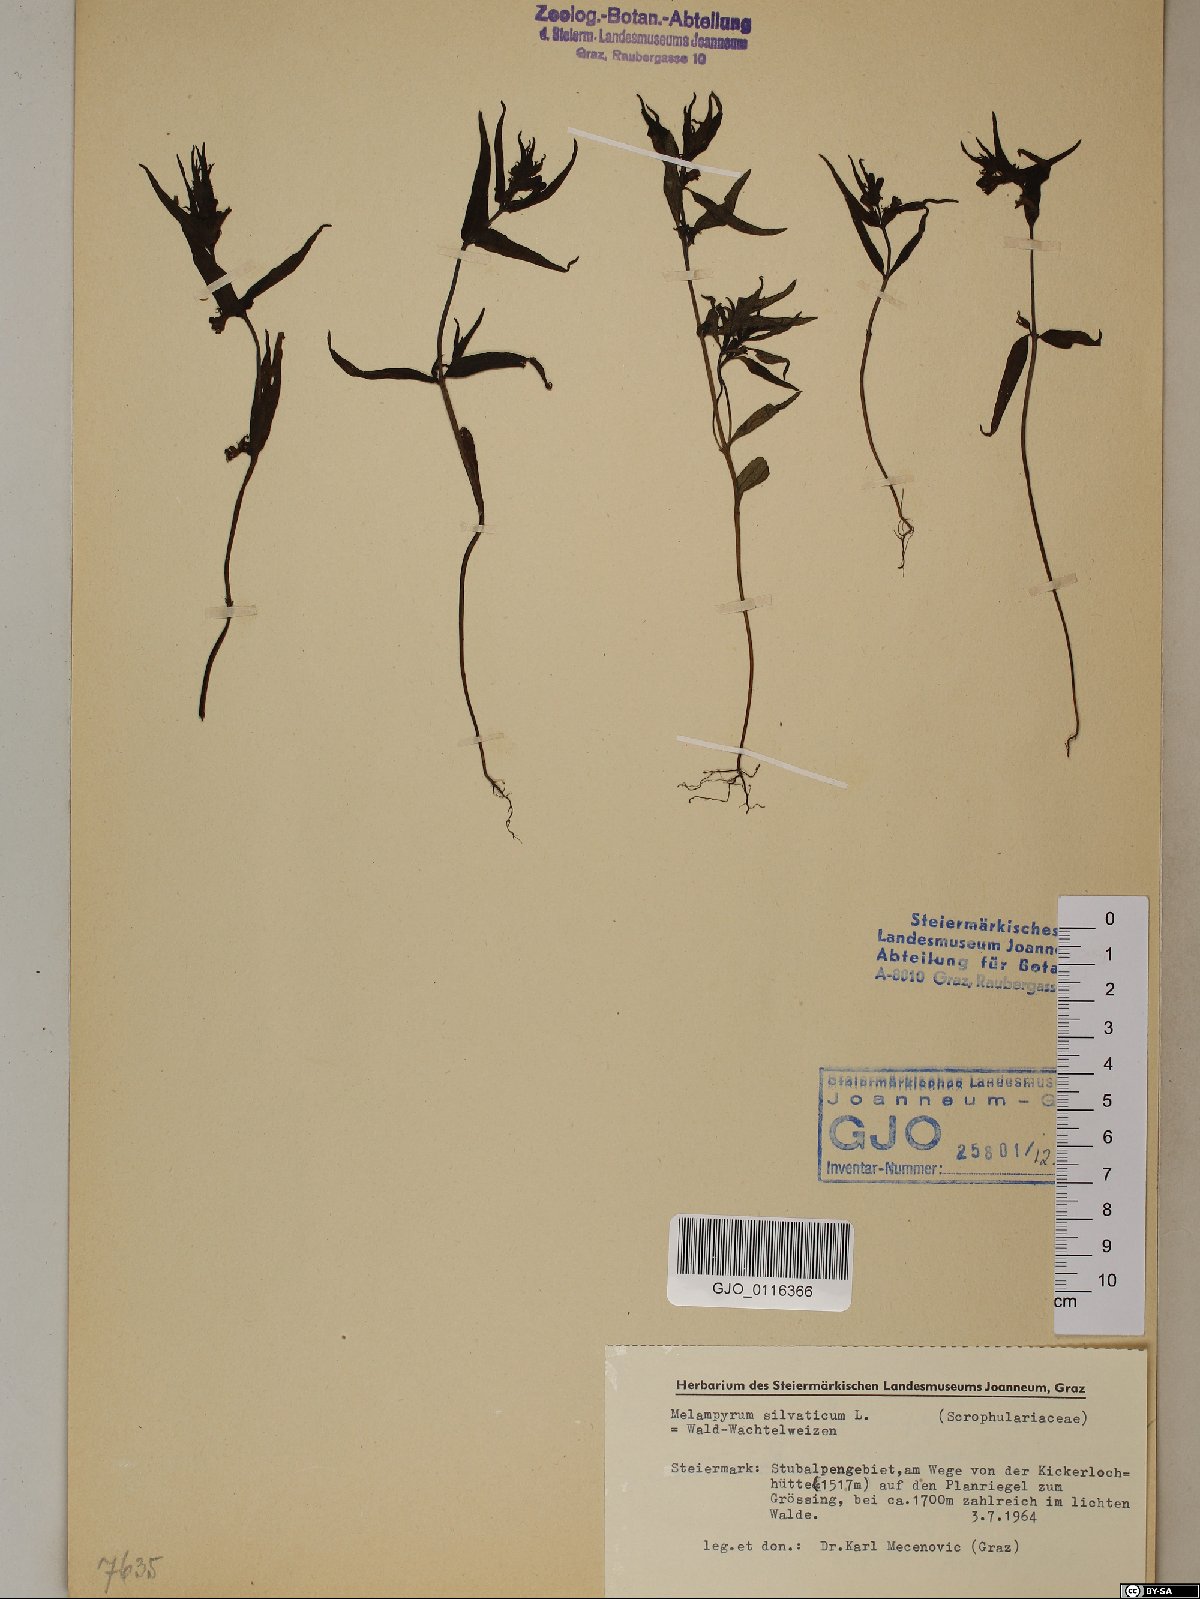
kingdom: Plantae
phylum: Tracheophyta
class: Magnoliopsida
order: Lamiales
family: Orobanchaceae
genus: Melampyrum
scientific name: Melampyrum sylvaticum
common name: Small cow-wheat
